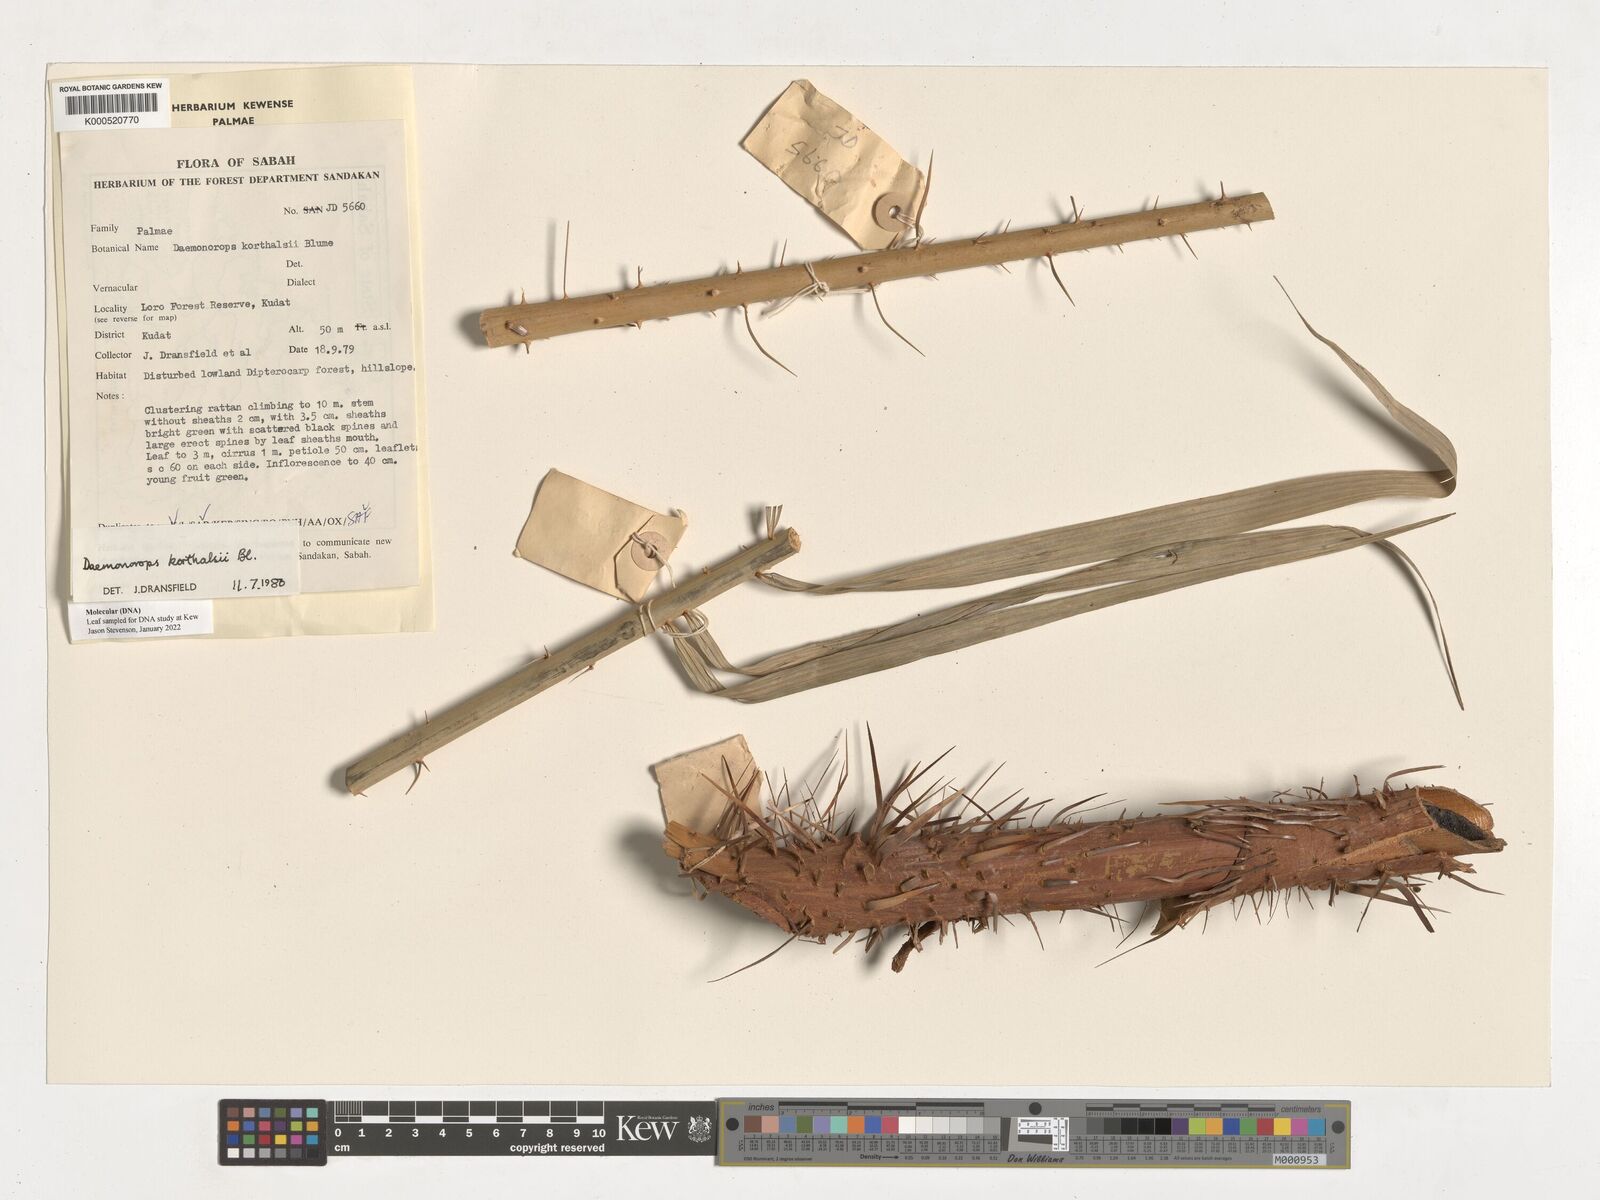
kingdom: Plantae
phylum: Tracheophyta
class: Liliopsida
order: Arecales
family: Arecaceae
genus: Calamus
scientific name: Calamus hirsutus
